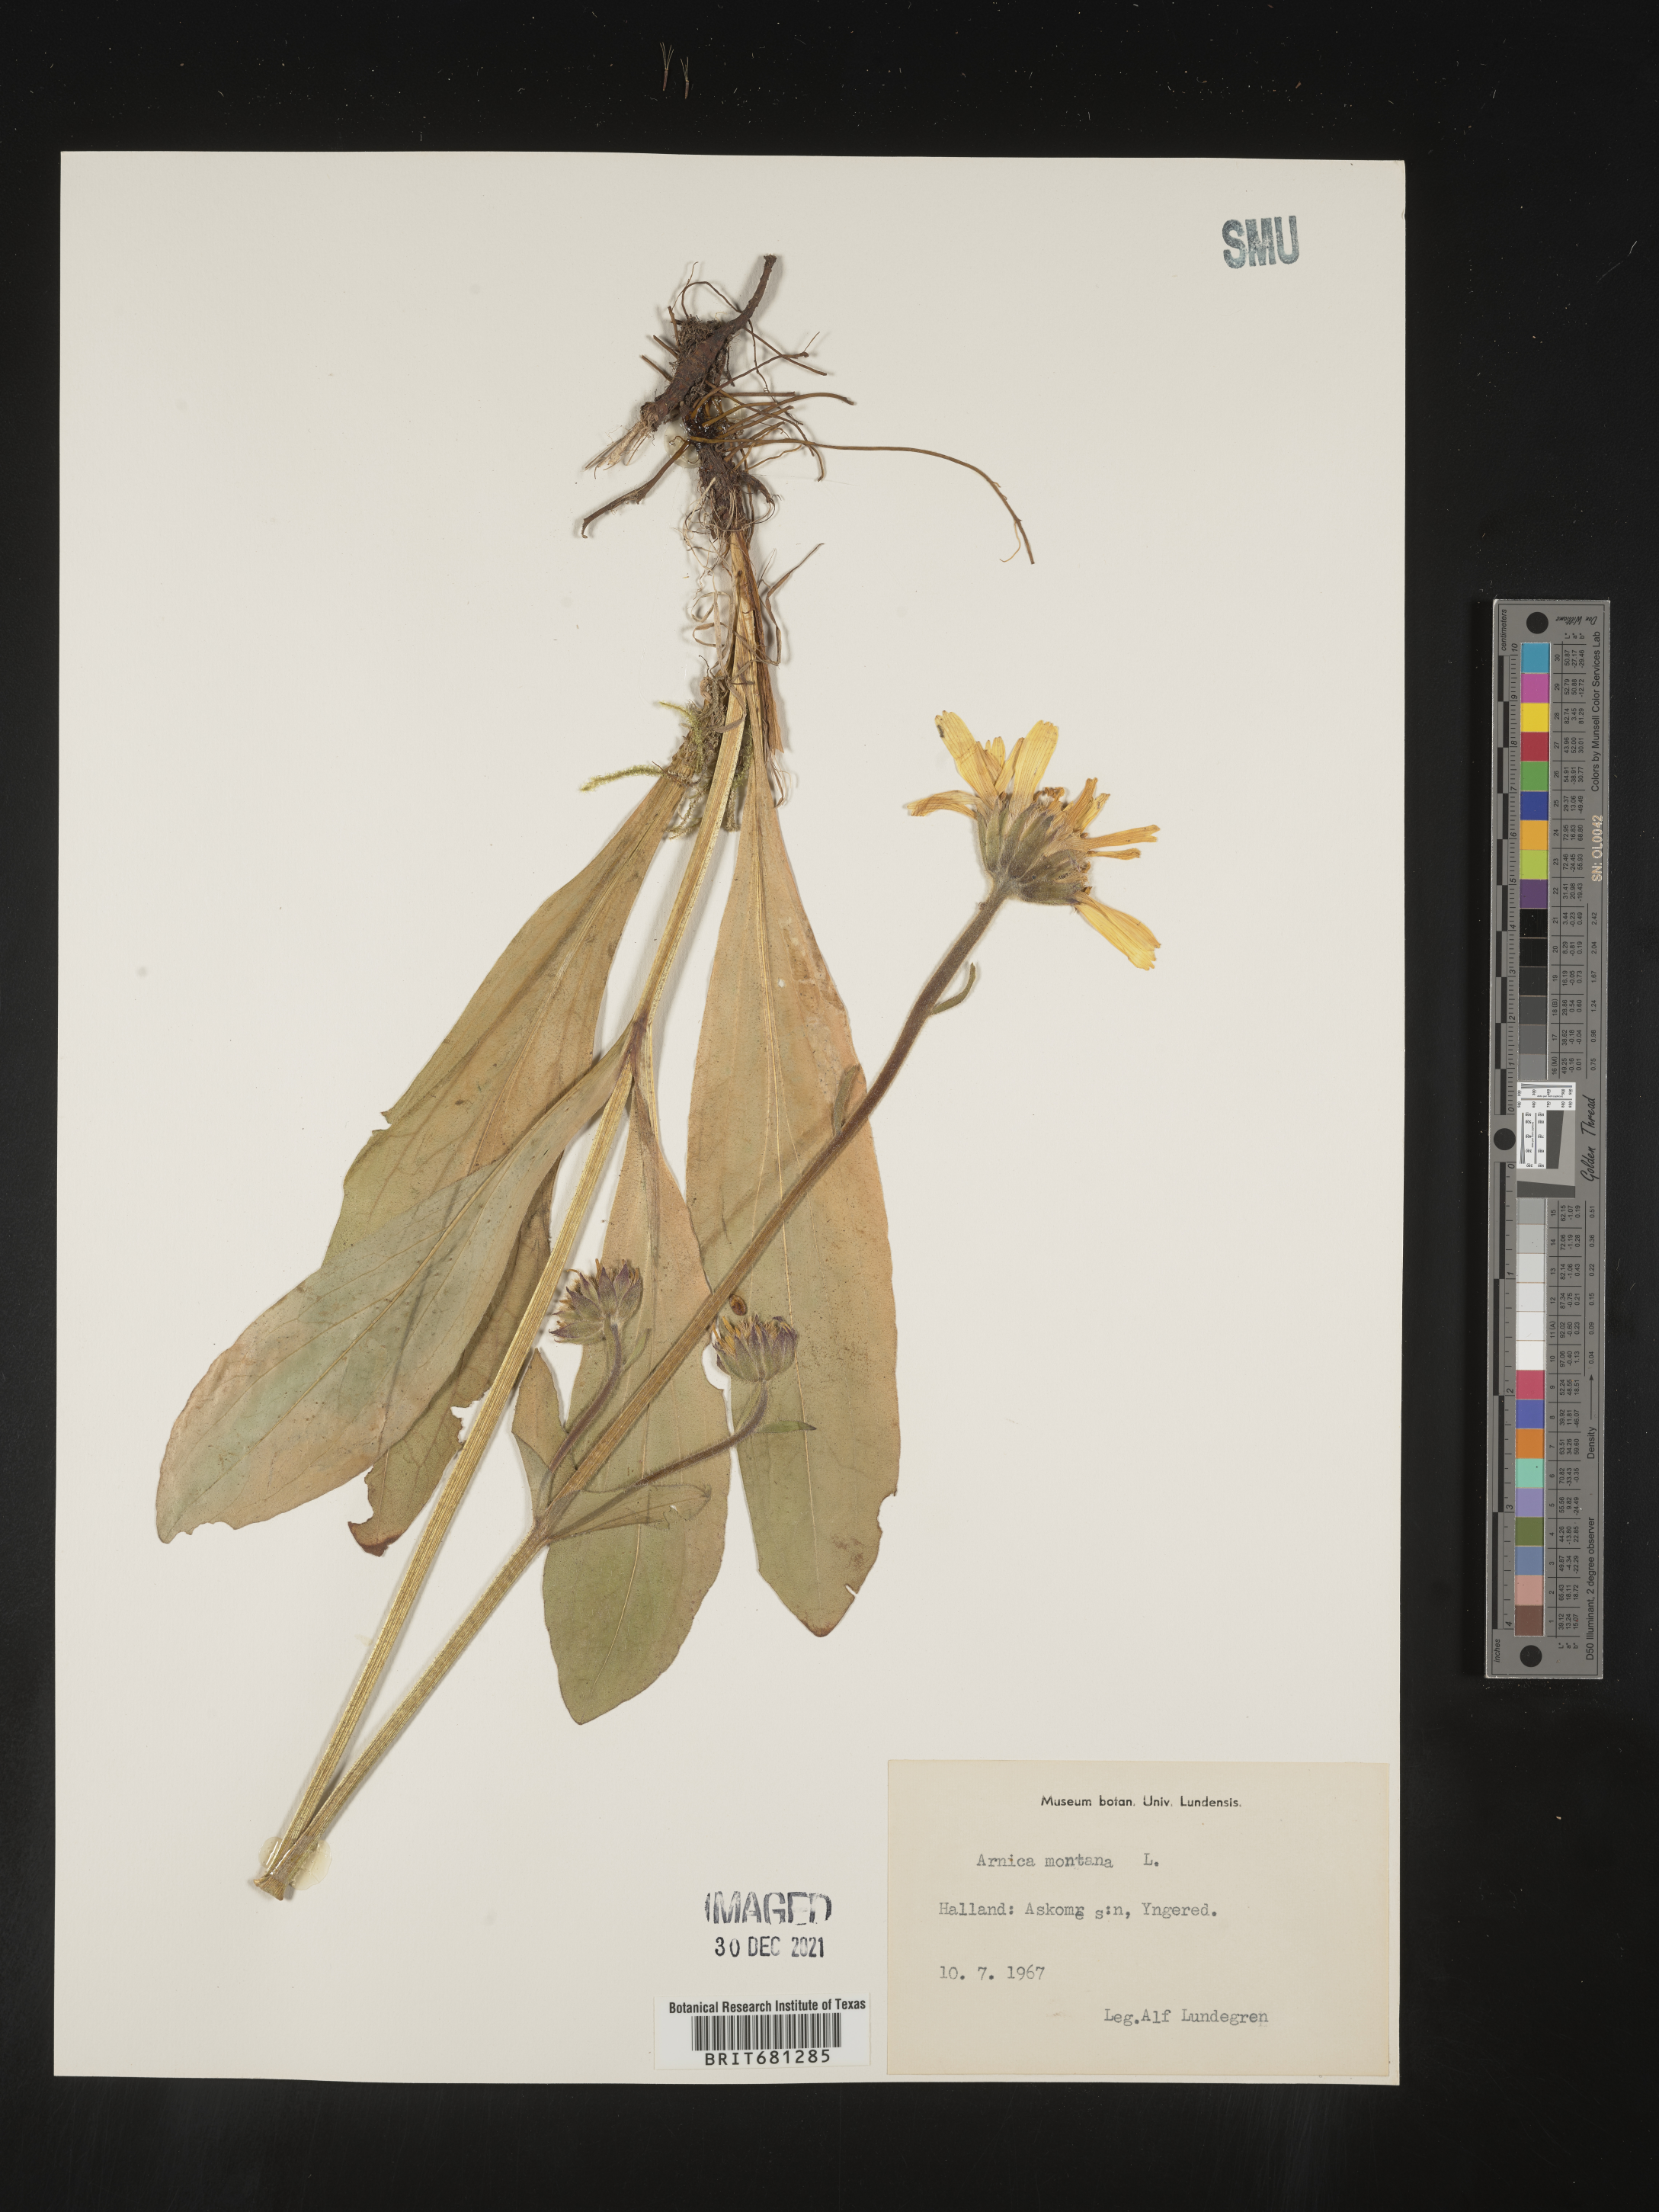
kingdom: Plantae
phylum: Tracheophyta
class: Magnoliopsida
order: Asterales
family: Asteraceae
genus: Arnica
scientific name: Arnica
